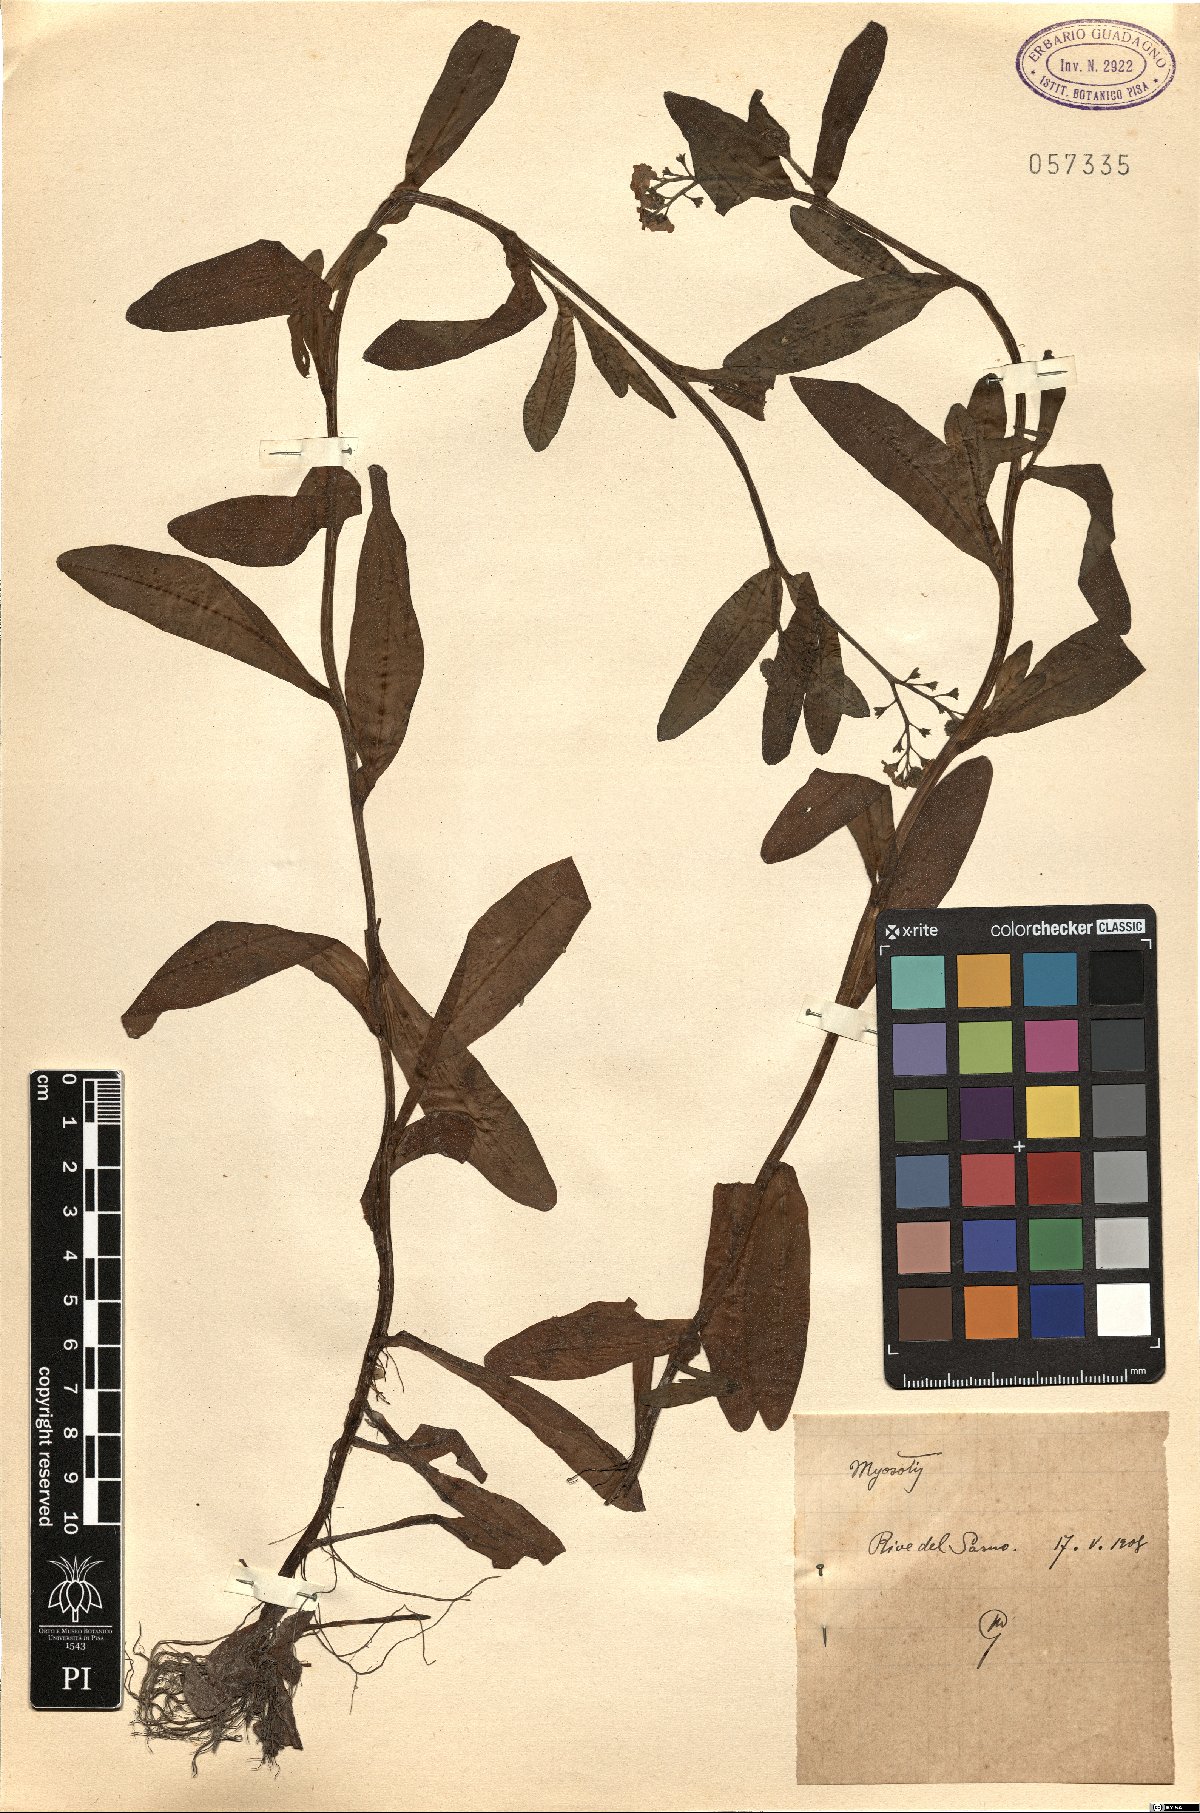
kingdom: Plantae
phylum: Tracheophyta
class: Magnoliopsida
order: Boraginales
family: Boraginaceae
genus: Myosotis
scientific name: Myosotis
